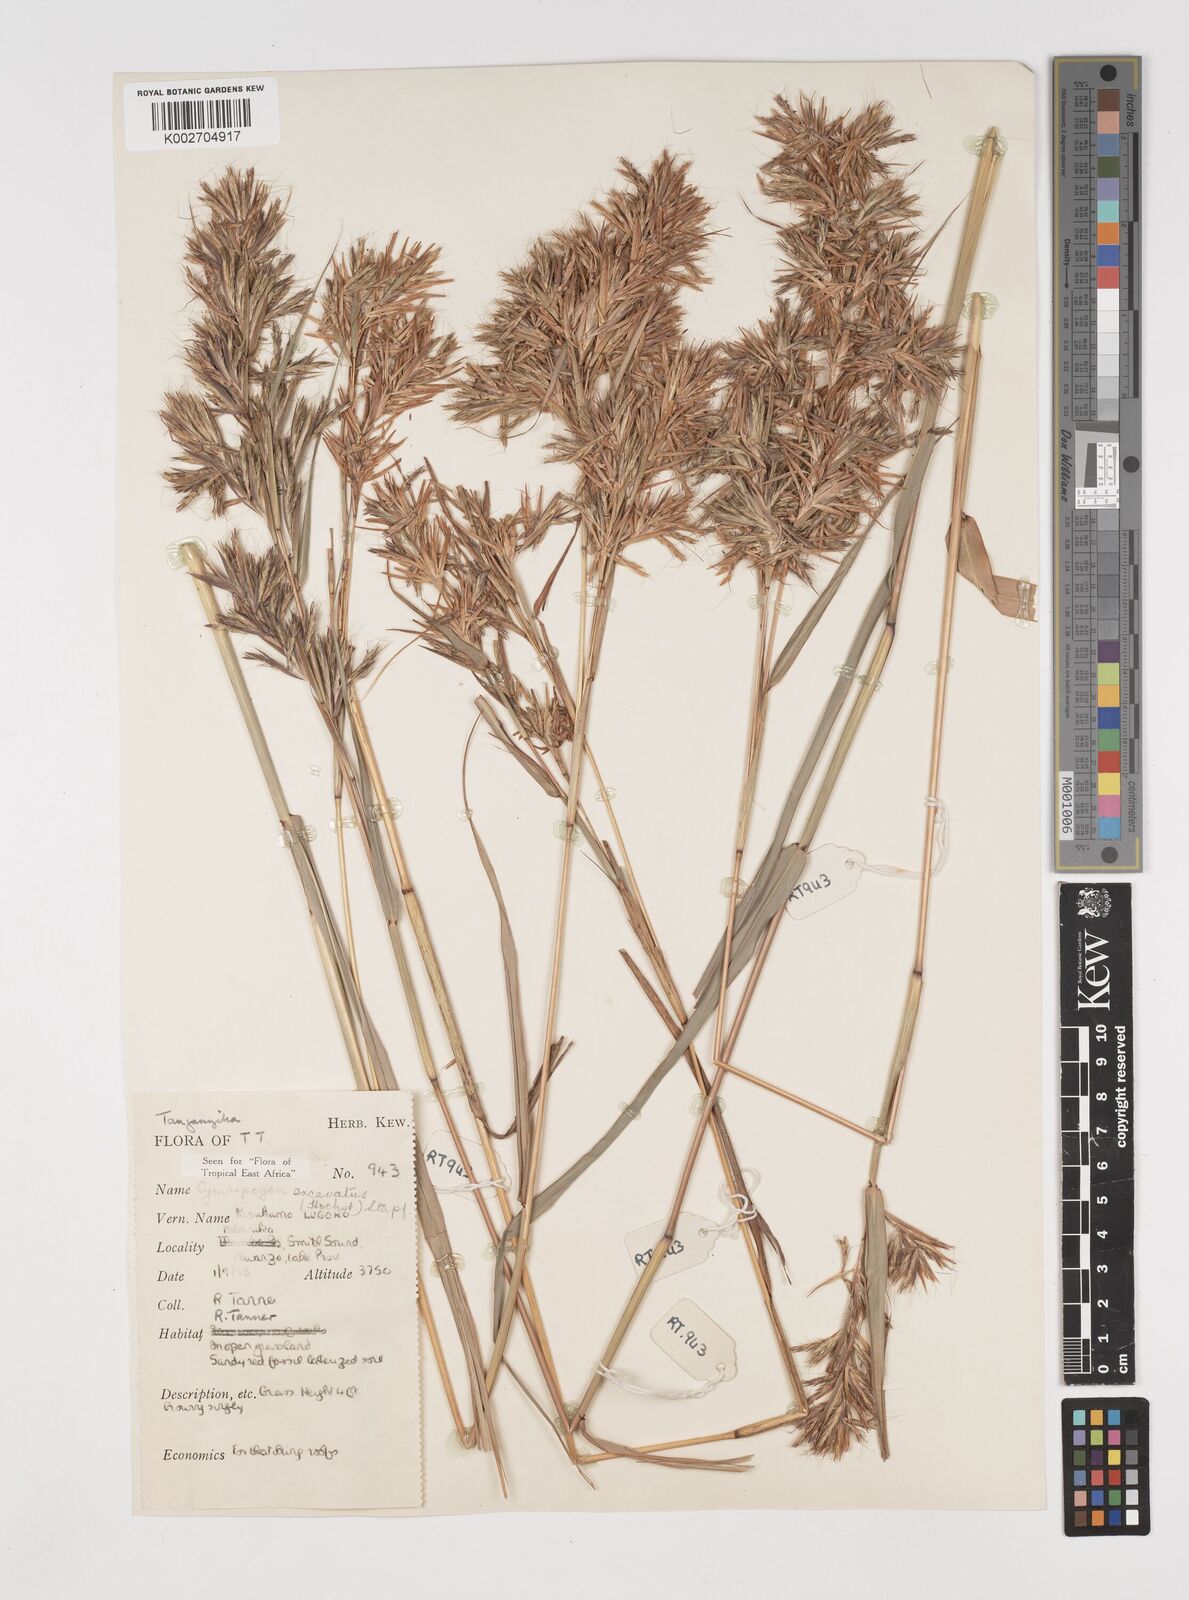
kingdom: Plantae
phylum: Tracheophyta
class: Liliopsida
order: Poales
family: Poaceae
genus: Cymbopogon
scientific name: Cymbopogon caesius
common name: Kachi grass
